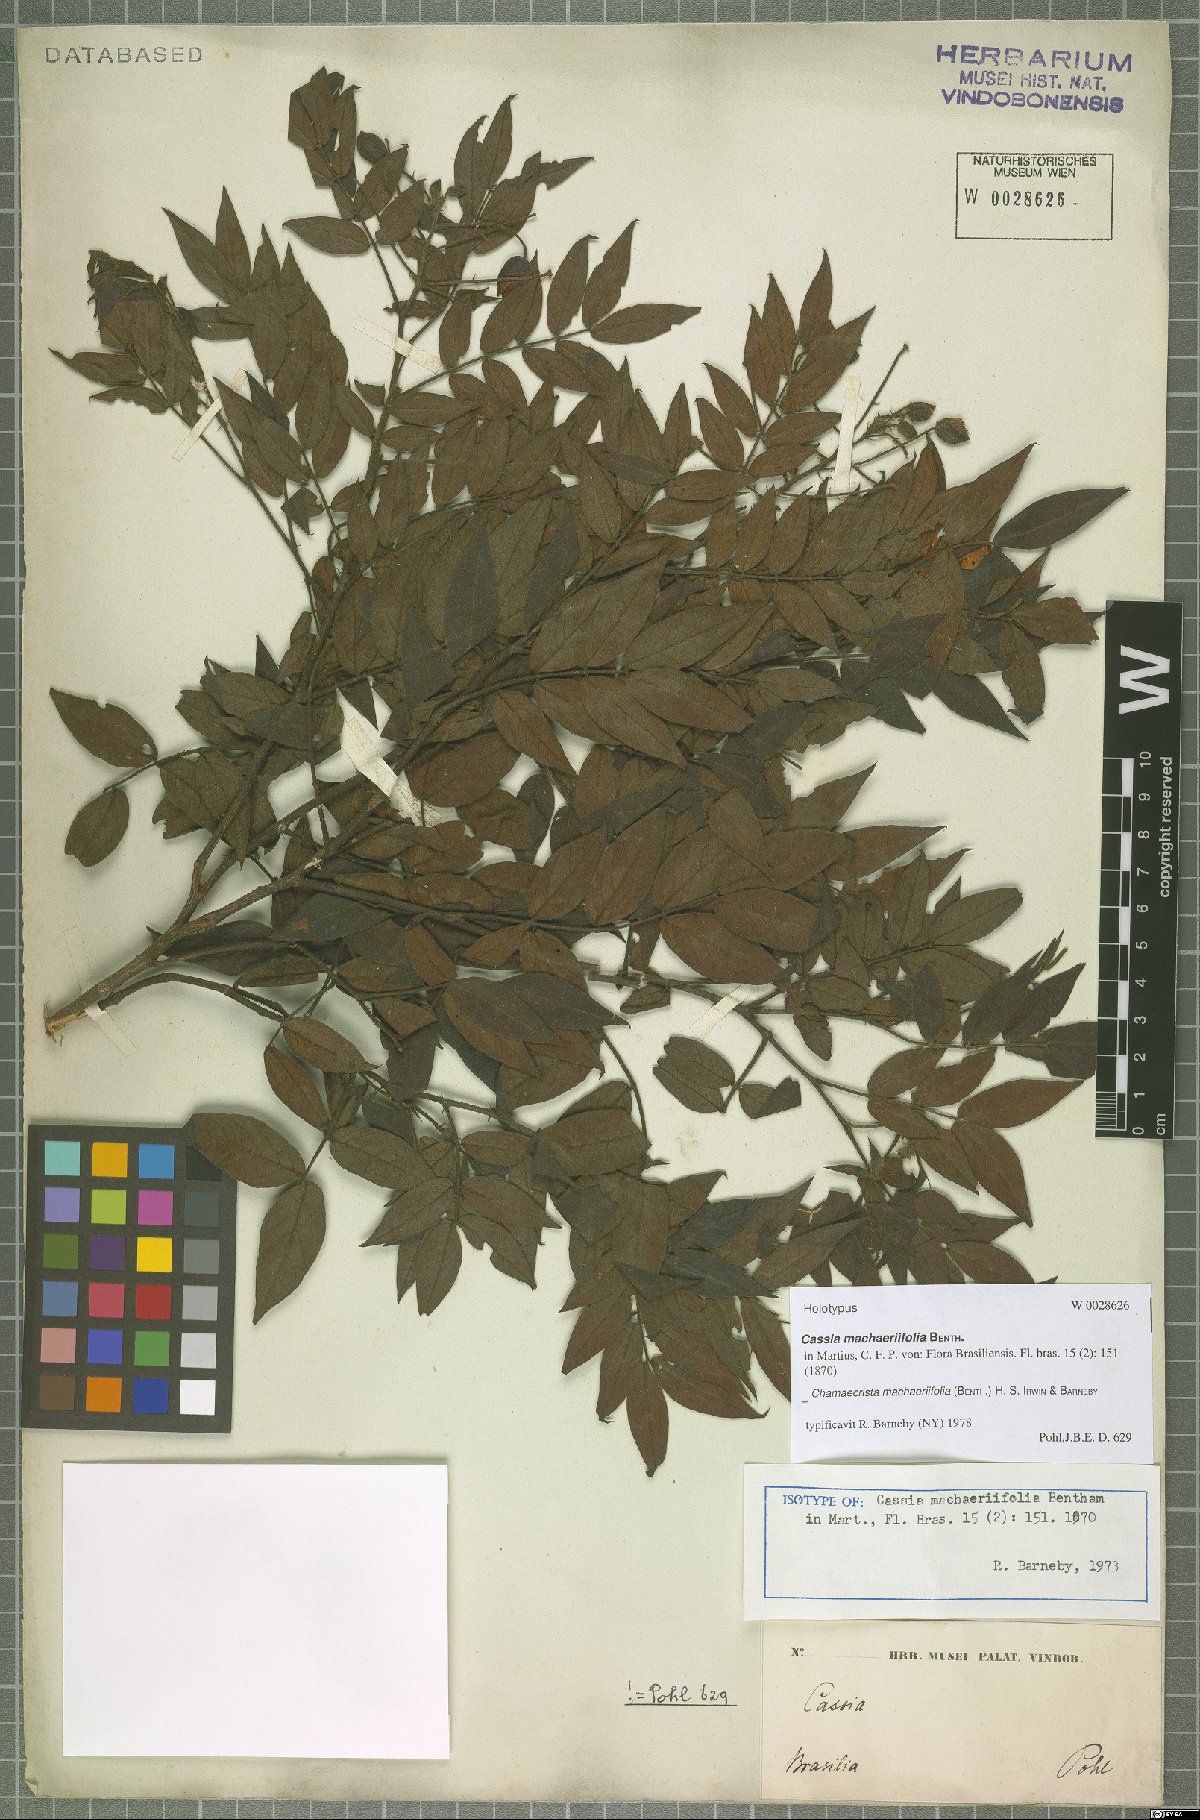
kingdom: Plantae
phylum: Tracheophyta
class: Magnoliopsida
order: Fabales
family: Fabaceae
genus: Chamaecrista
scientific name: Chamaecrista machaeriifolia
